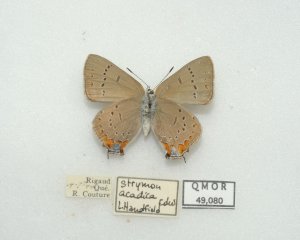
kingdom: Animalia
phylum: Arthropoda
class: Insecta
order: Lepidoptera
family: Lycaenidae
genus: Strymon
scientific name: Strymon acadica
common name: Acadian Hairstreak
